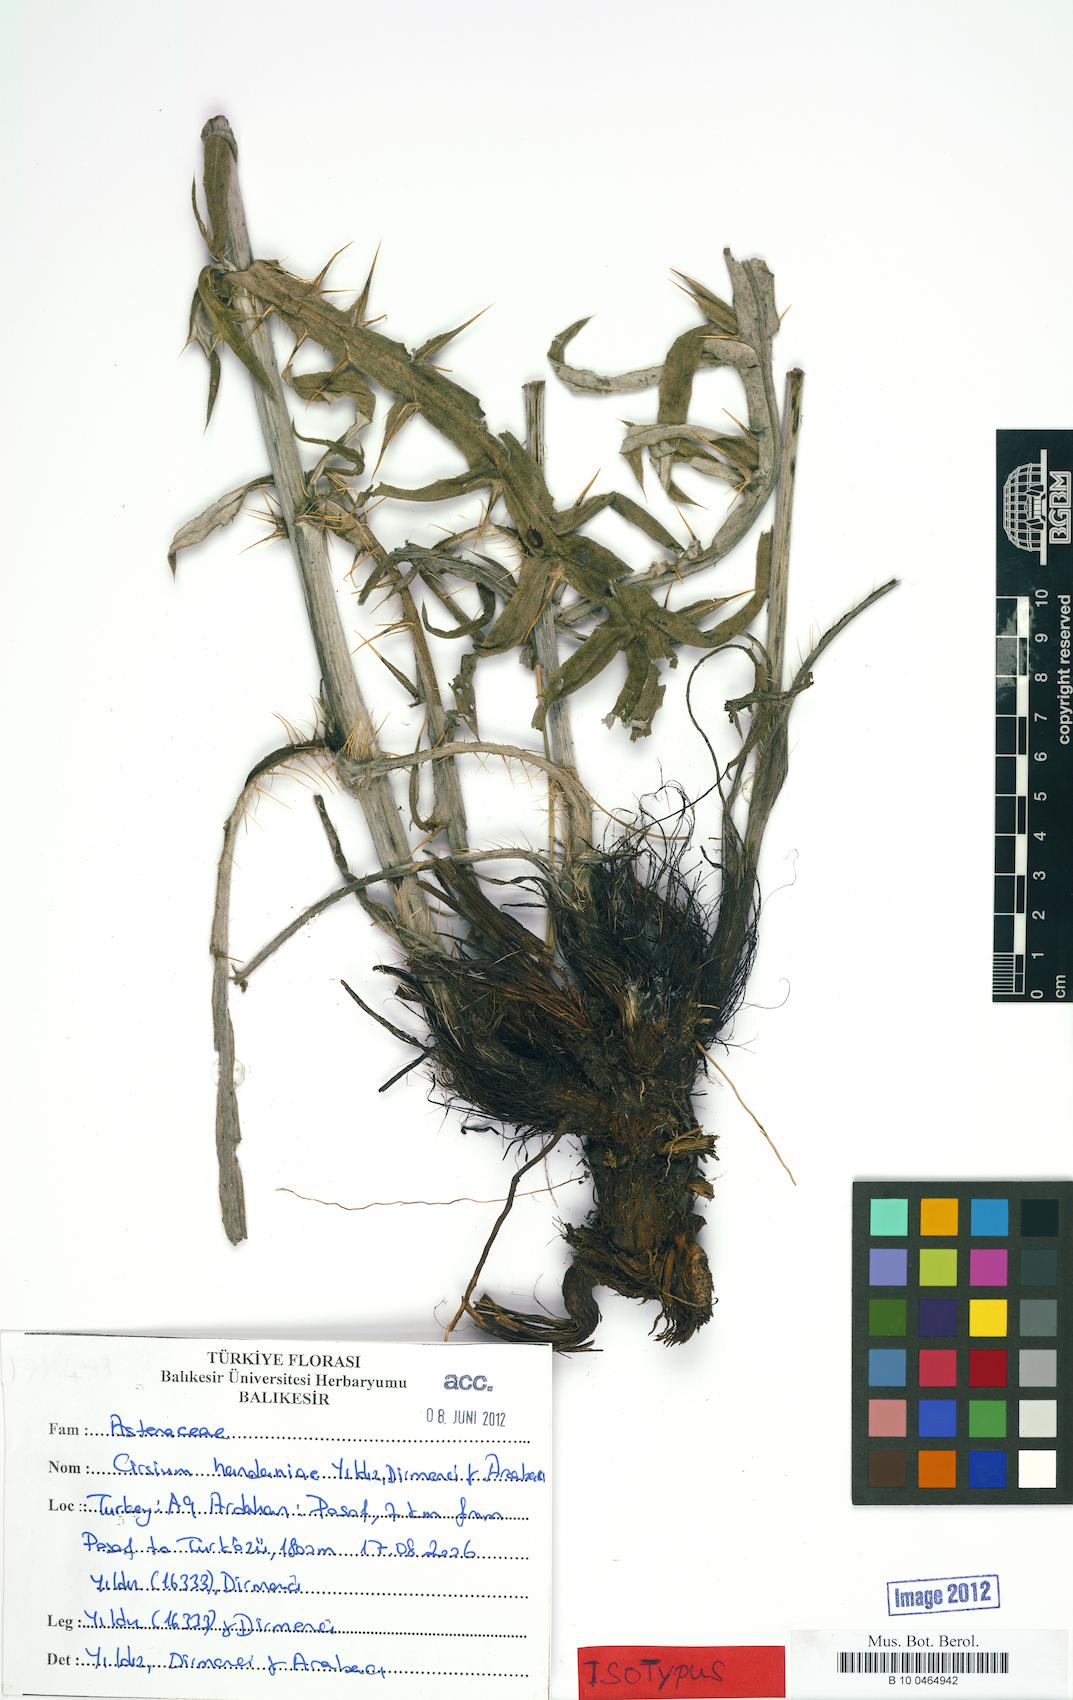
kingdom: Plantae
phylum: Tracheophyta
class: Magnoliopsida
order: Asterales
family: Asteraceae
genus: Lophiolepis
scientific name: Lophiolepis handaniae
